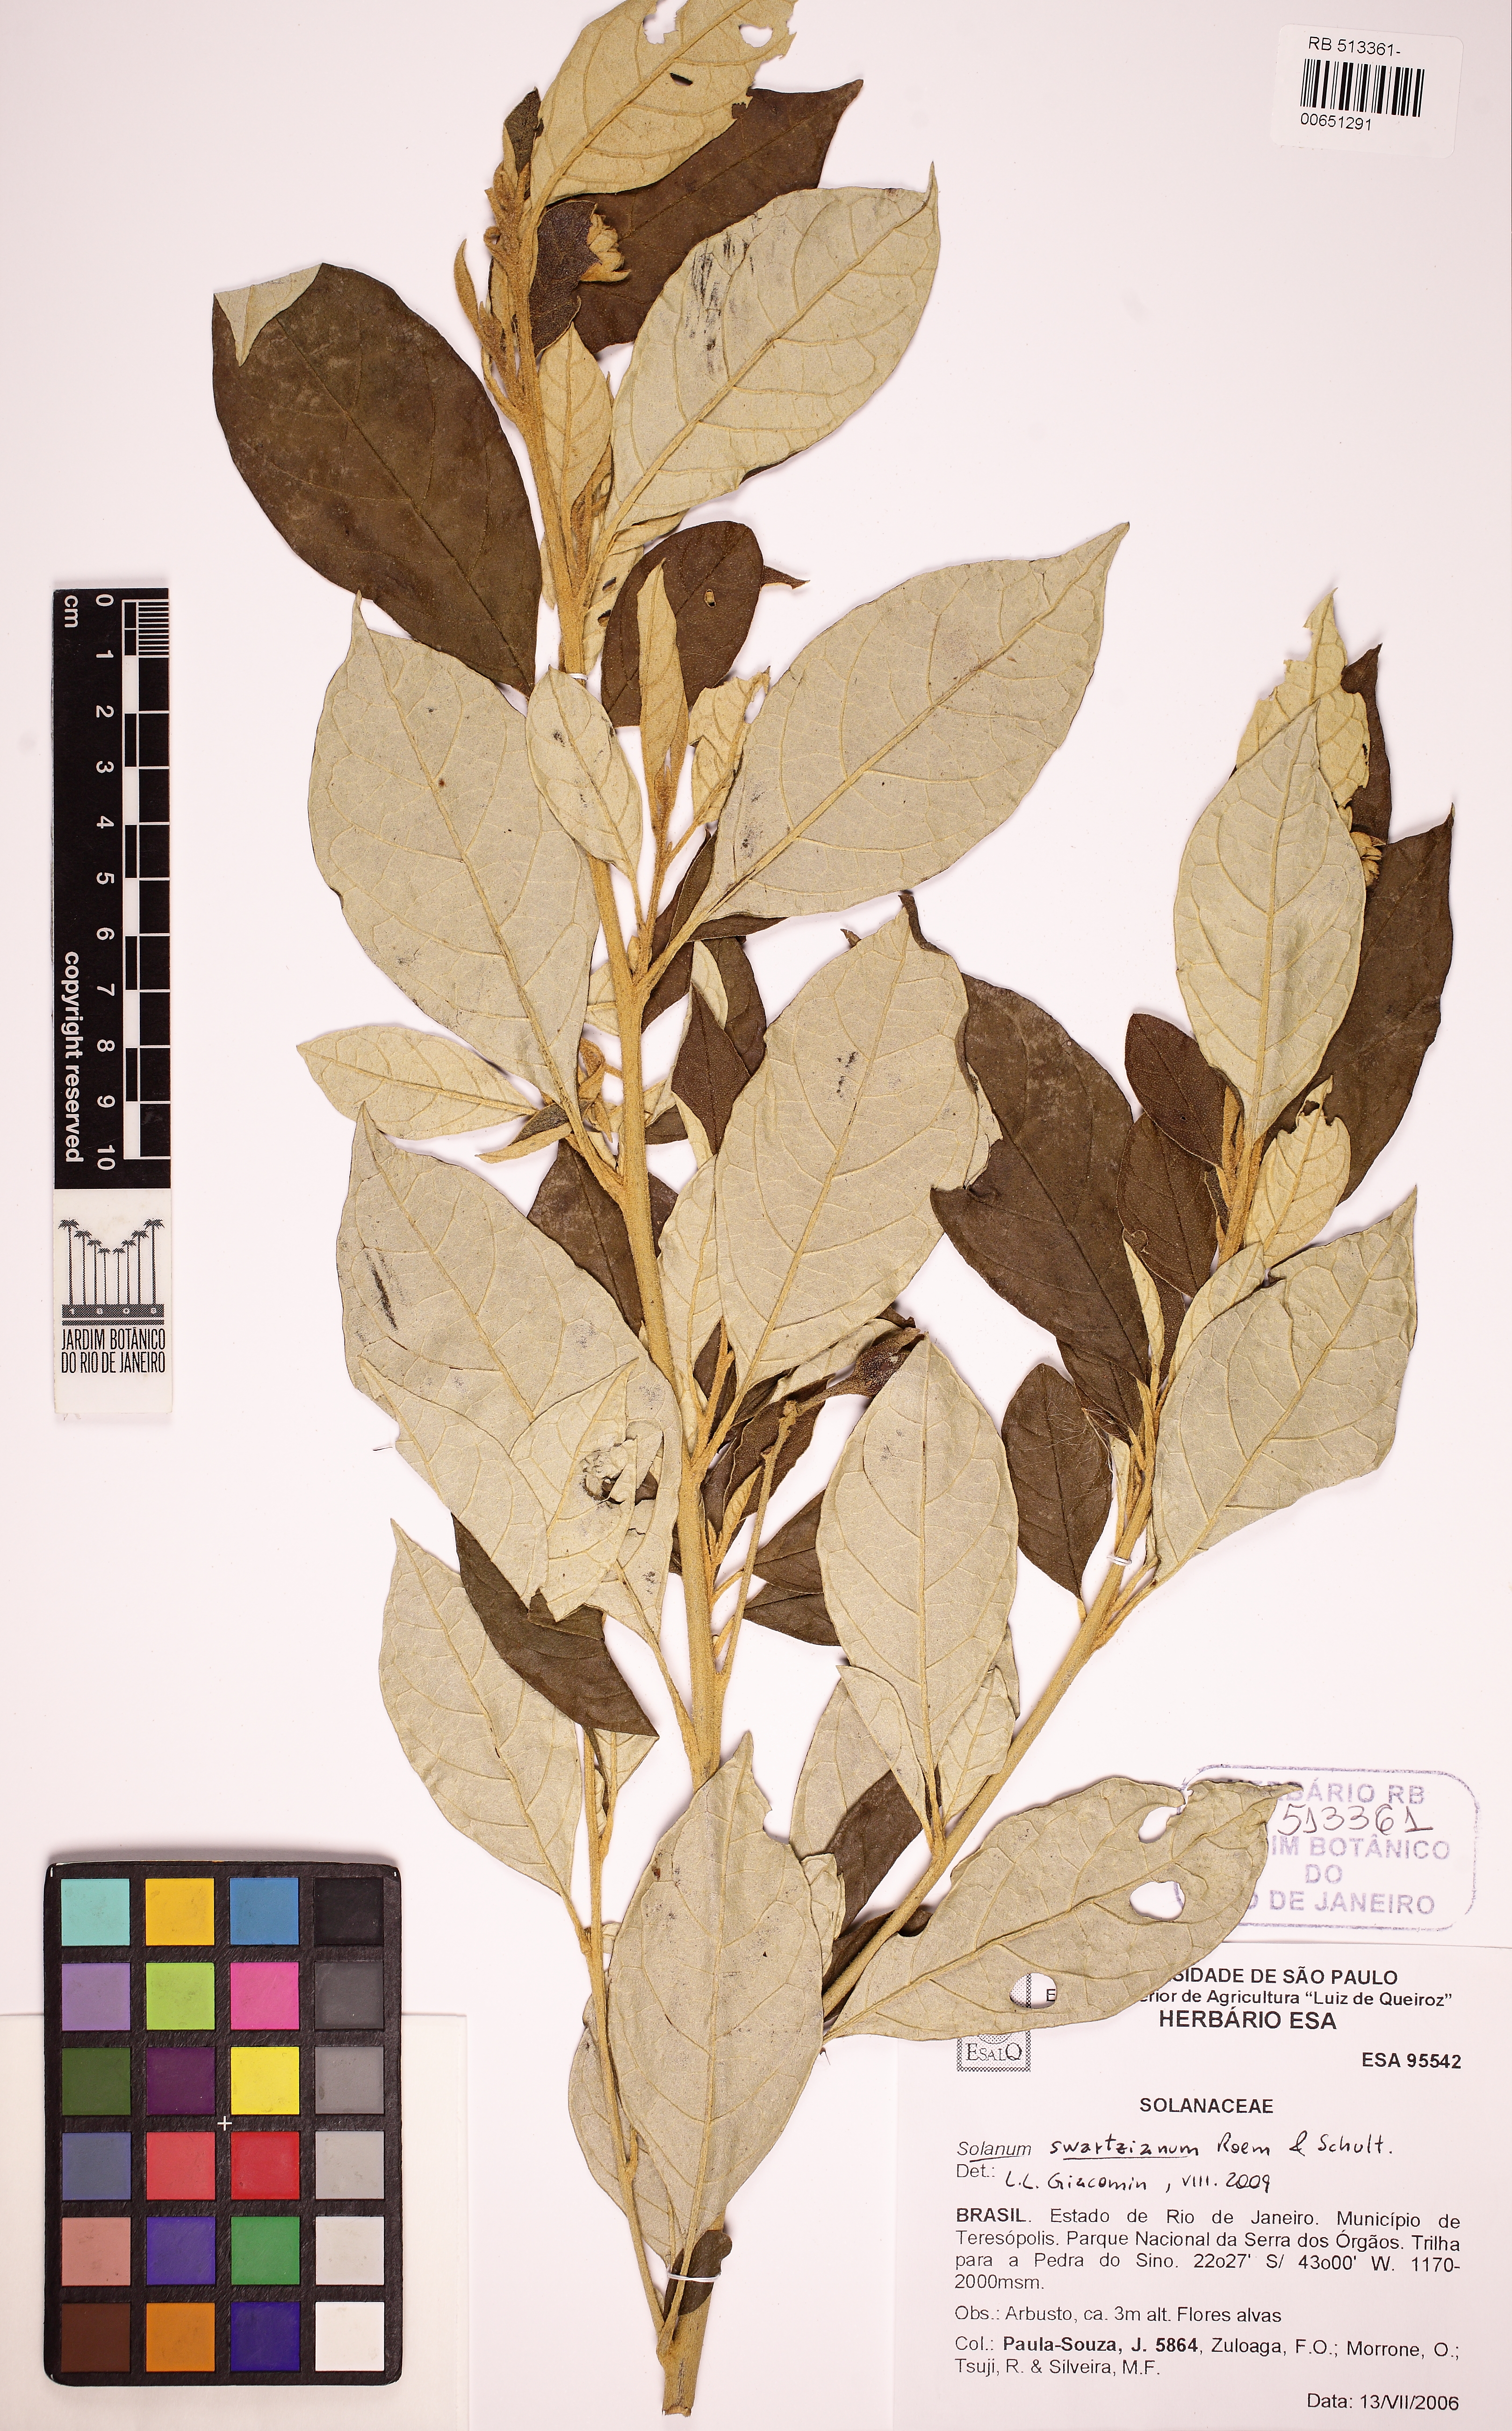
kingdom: Plantae
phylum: Tracheophyta
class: Magnoliopsida
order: Solanales
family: Solanaceae
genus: Solanum
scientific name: Solanum swartzianum
